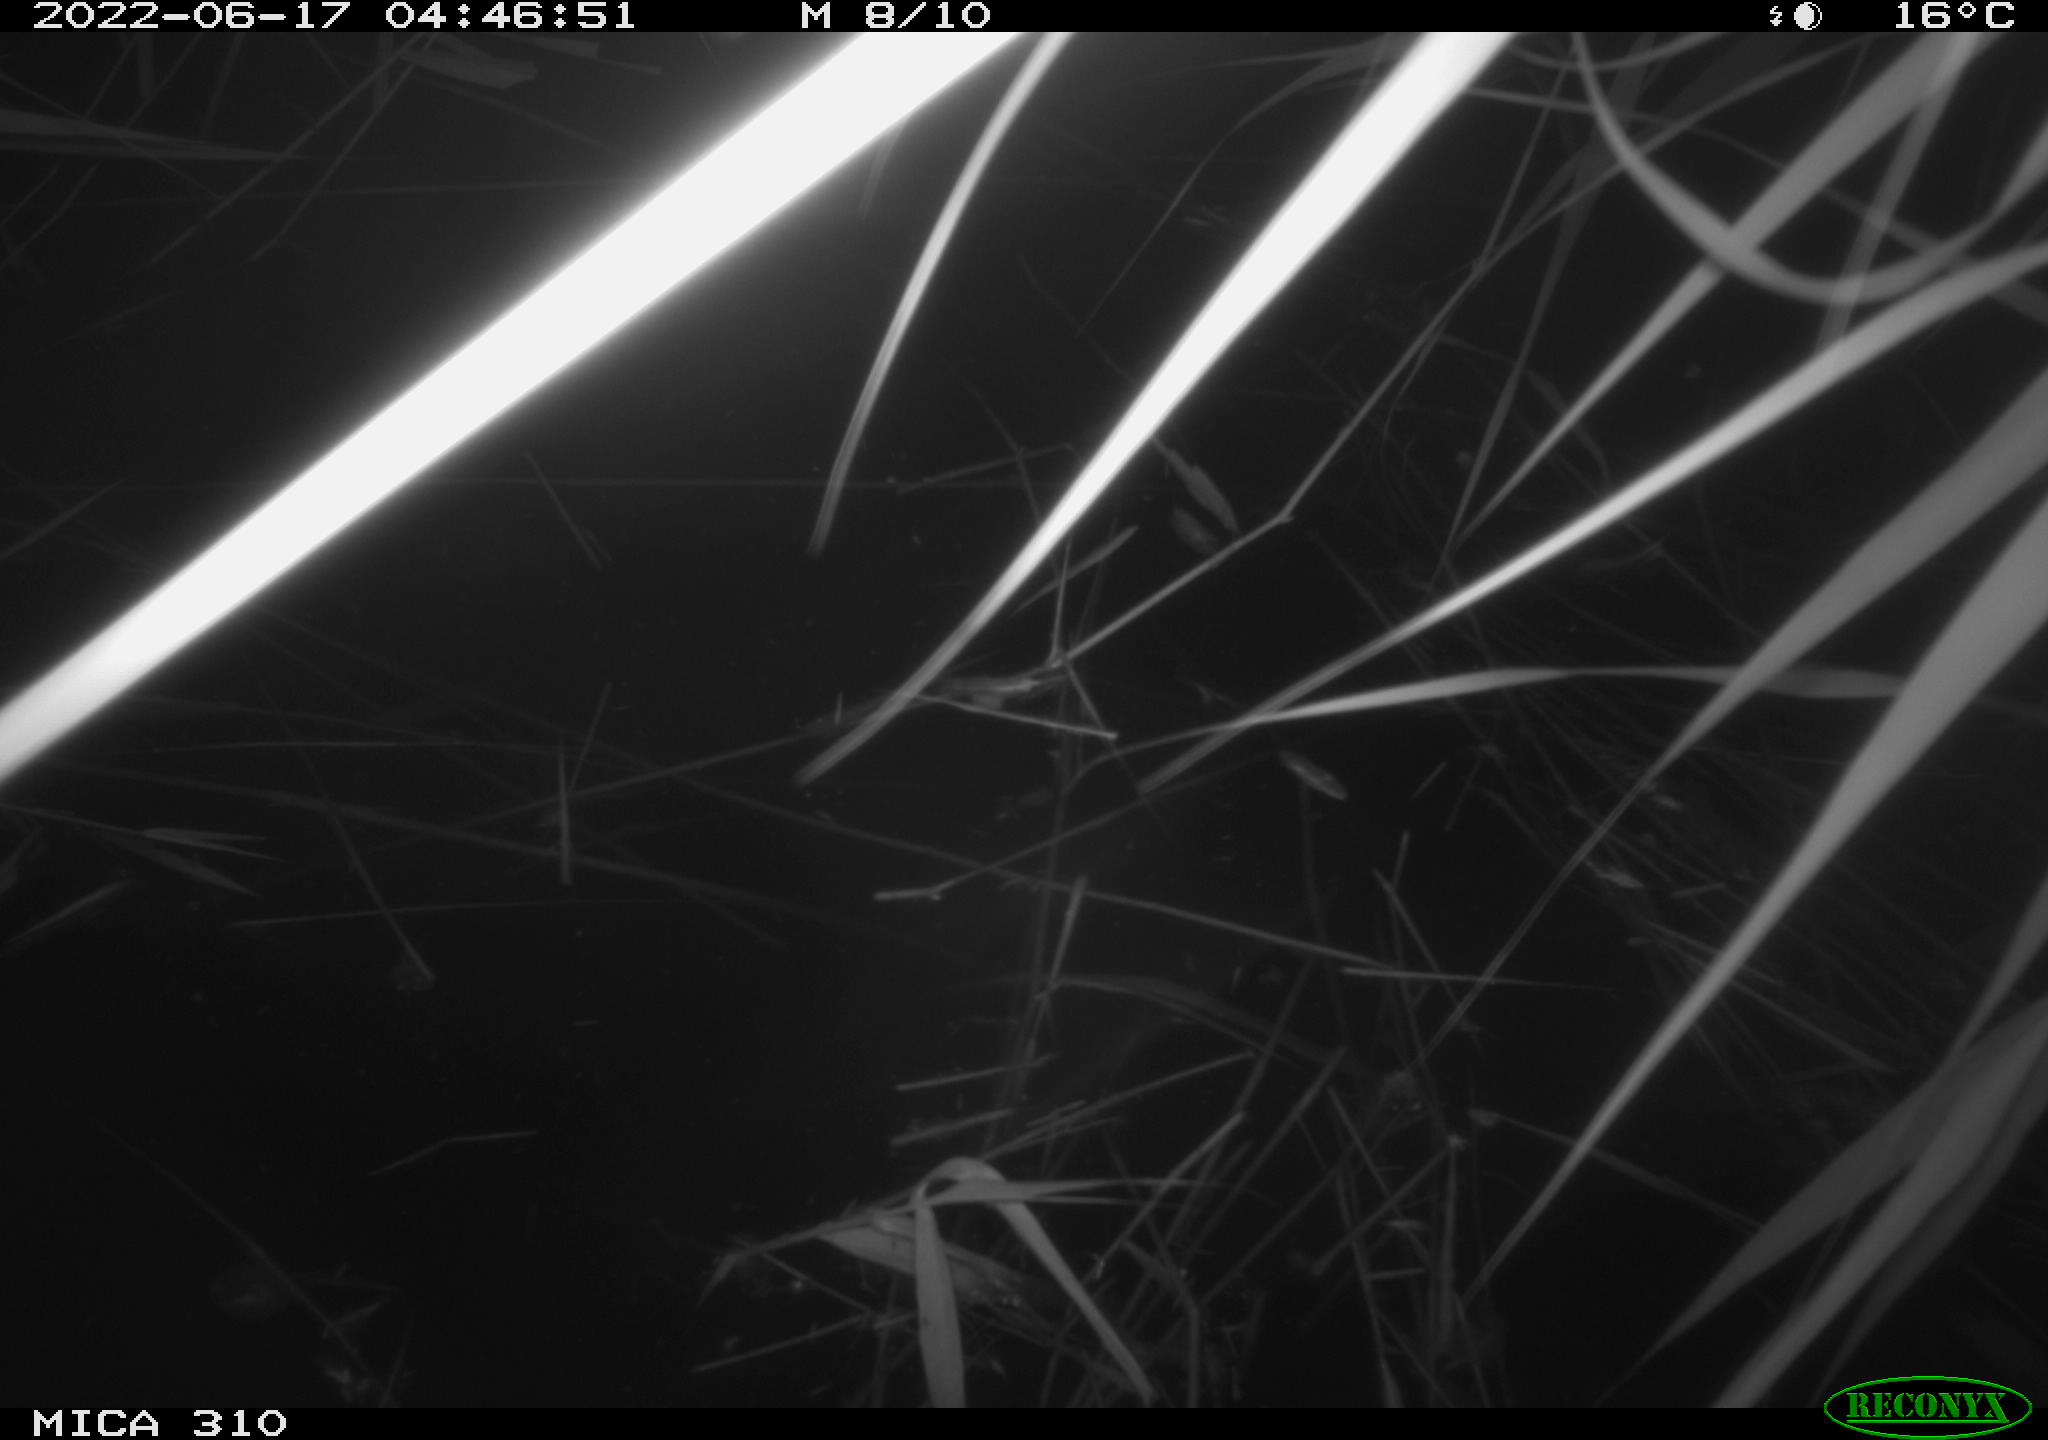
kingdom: Animalia
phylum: Chordata
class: Aves
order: Anseriformes
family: Anatidae
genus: Anas
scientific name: Anas platyrhynchos
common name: Mallard
